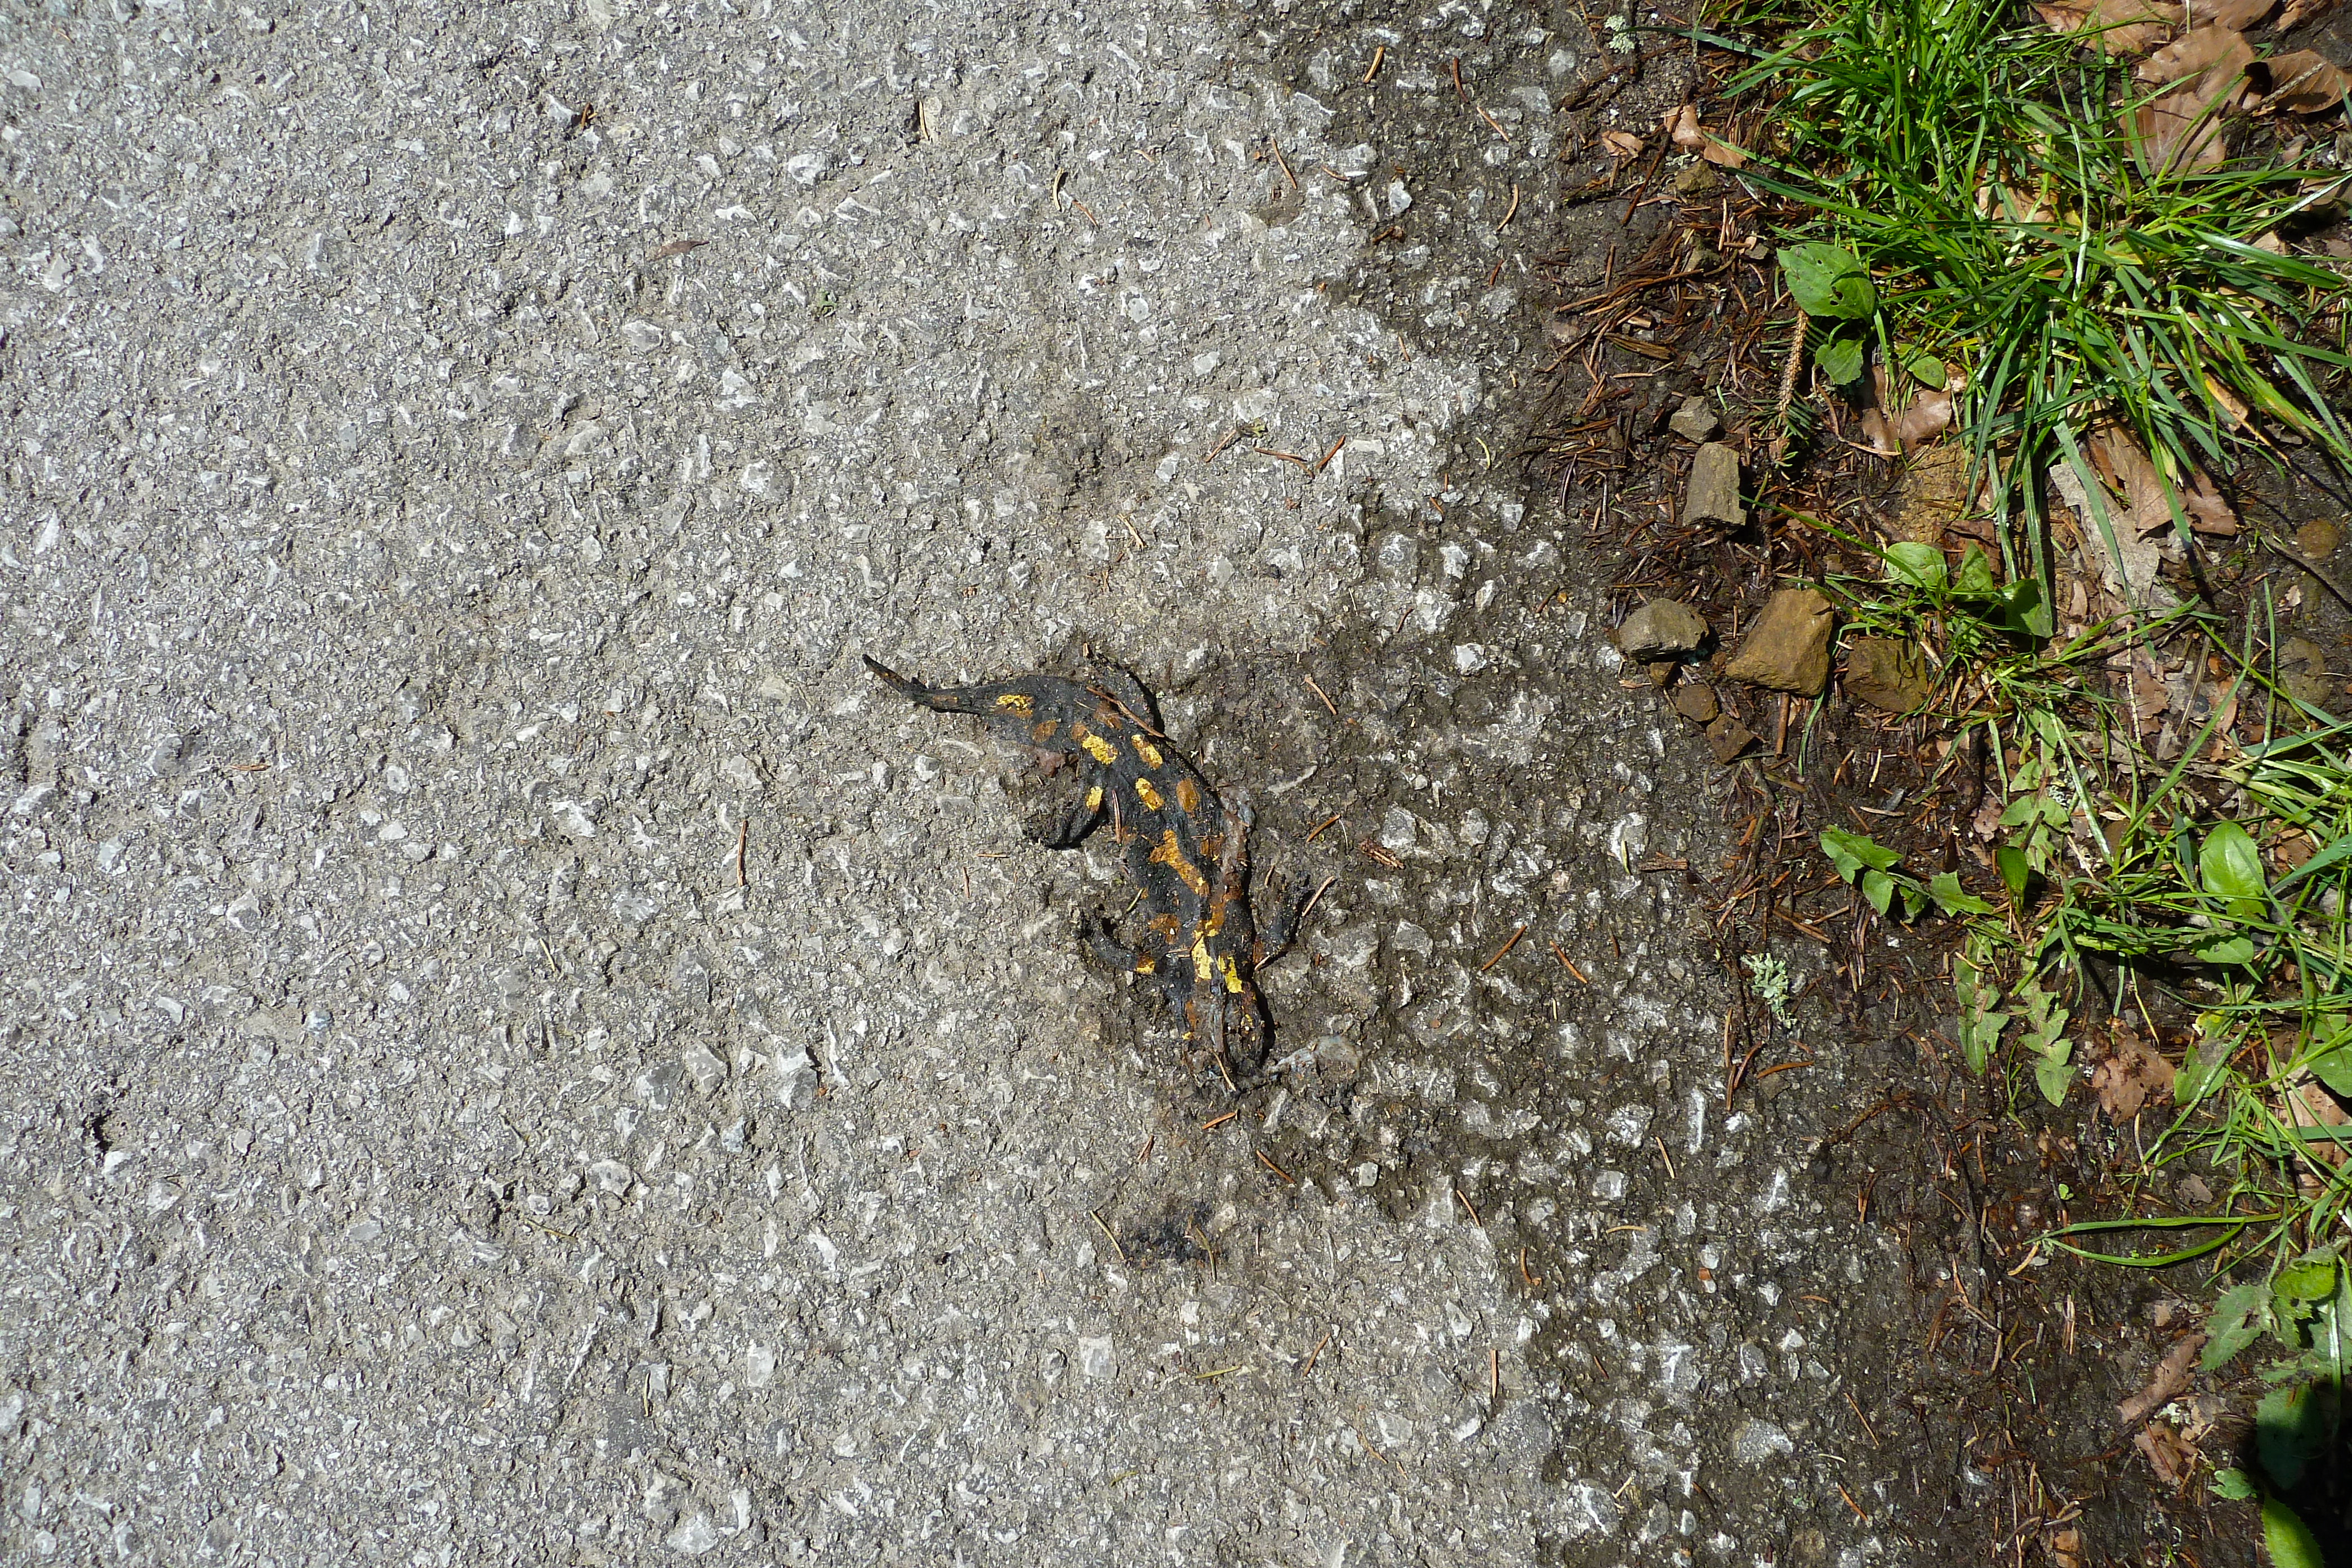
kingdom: Animalia
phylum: Chordata
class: Amphibia
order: Caudata
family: Salamandridae
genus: Salamandra
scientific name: Salamandra salamandra
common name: Fire salamander
